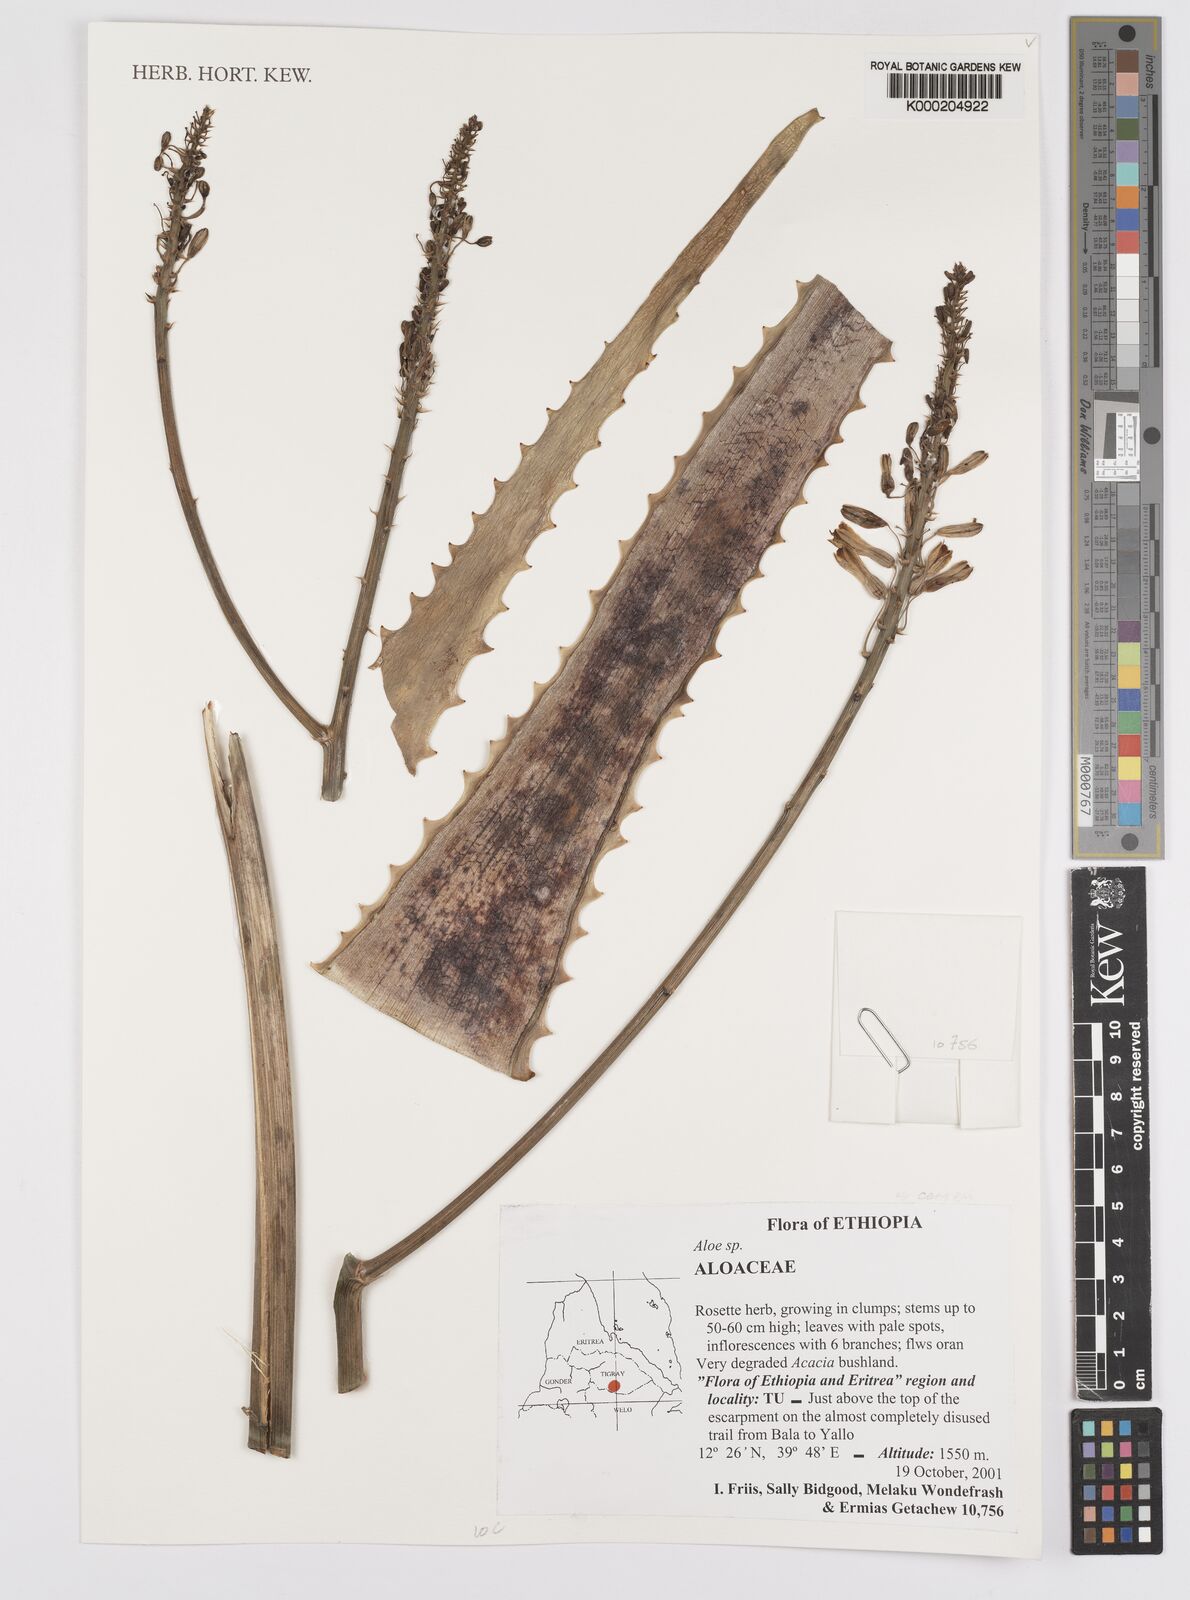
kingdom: Plantae
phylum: Tracheophyta
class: Liliopsida
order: Asparagales
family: Asphodelaceae
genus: Aloe
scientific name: Aloe
